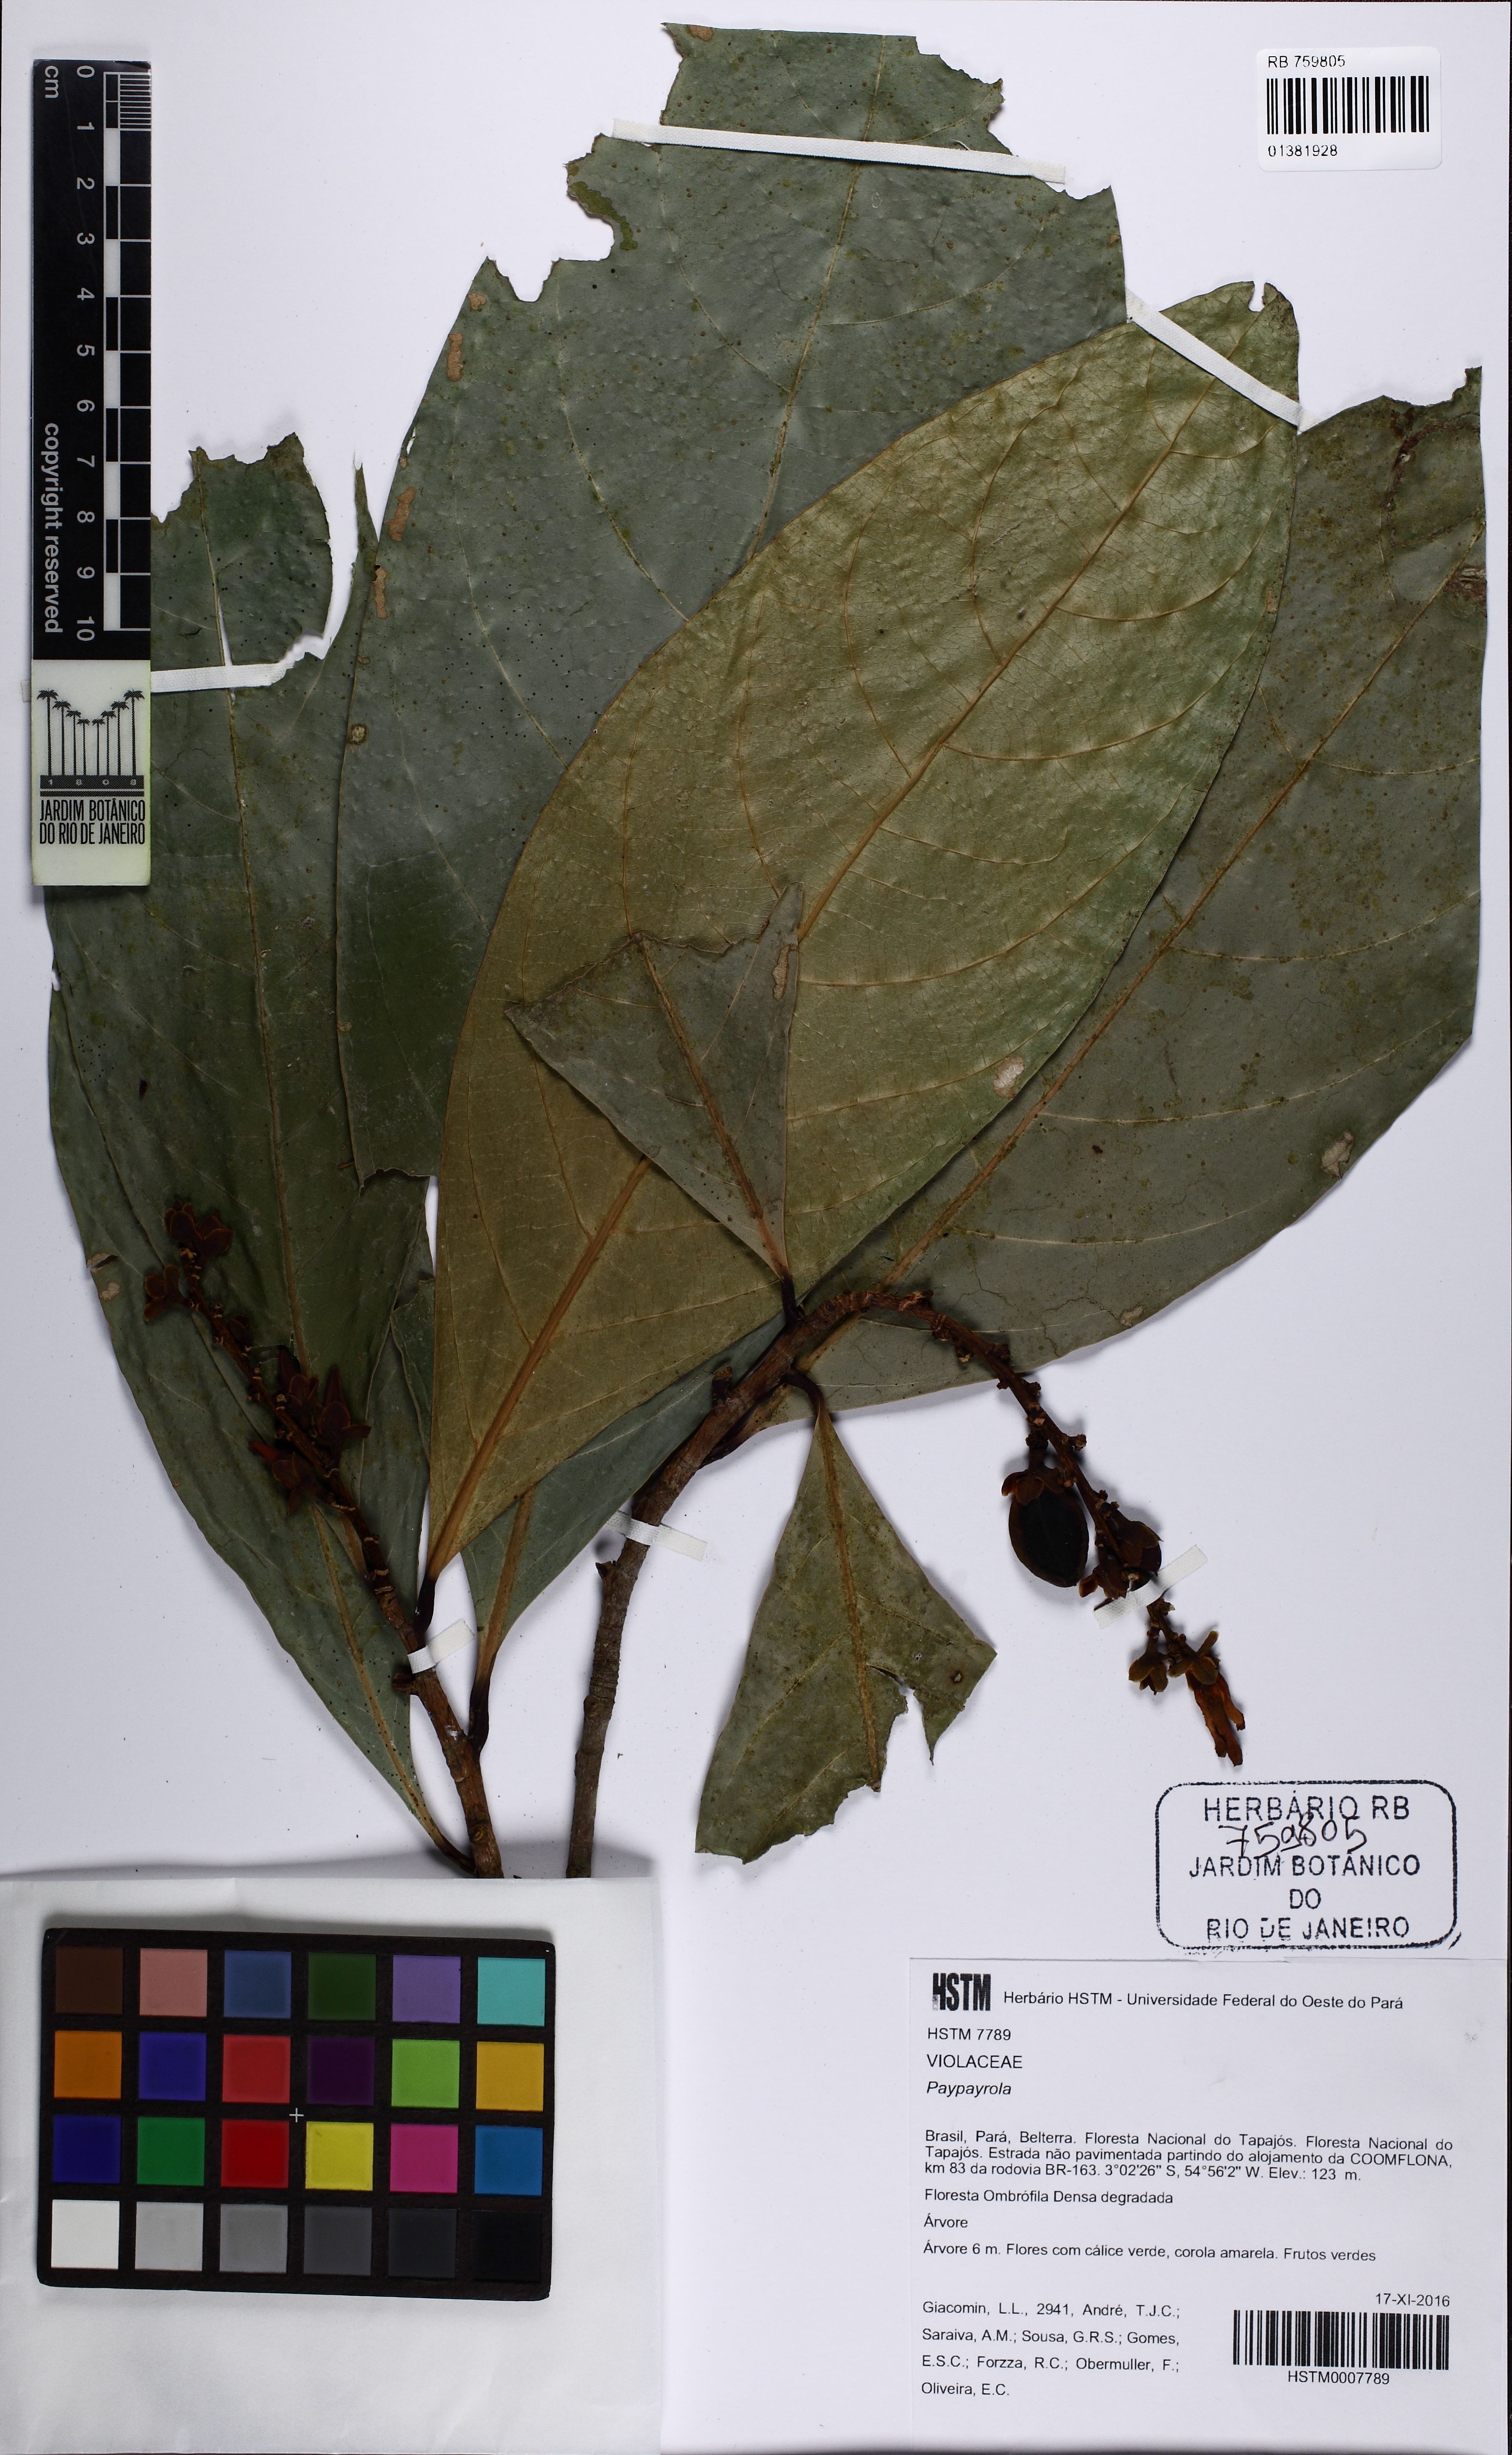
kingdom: Plantae
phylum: Tracheophyta
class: Magnoliopsida
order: Malpighiales
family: Violaceae
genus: Paypayrola
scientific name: Paypayrola grandiflora
